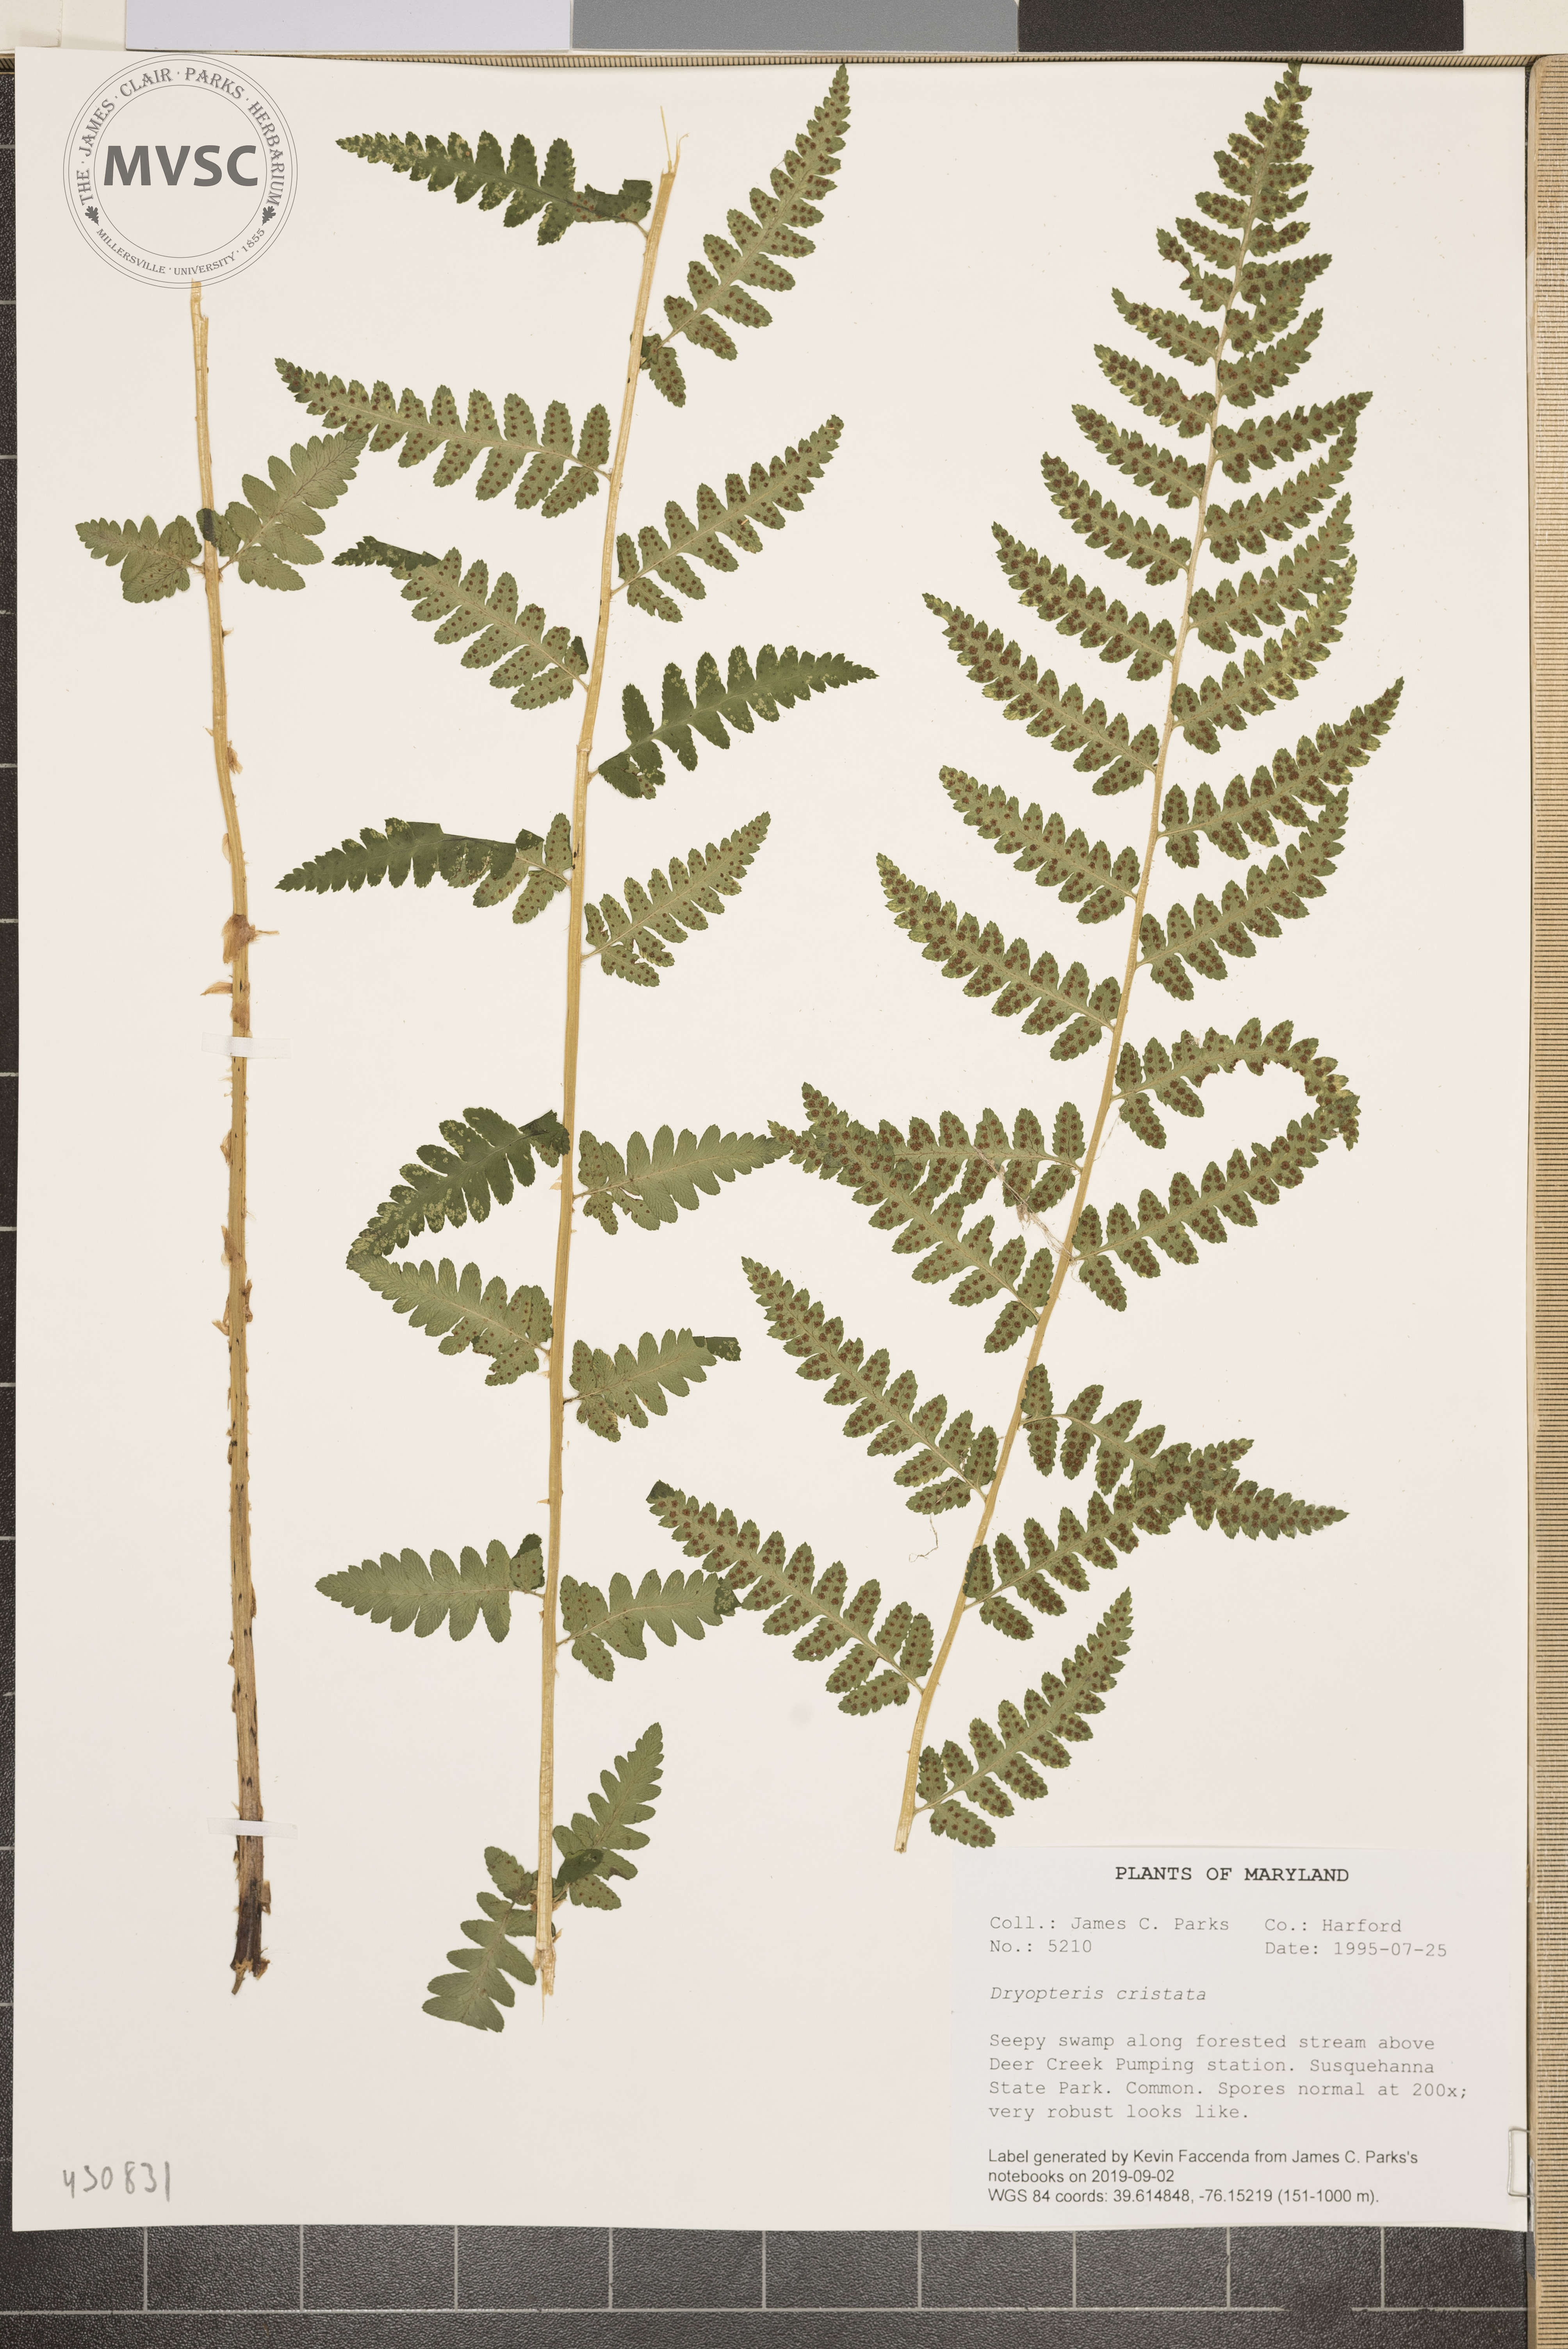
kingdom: Plantae
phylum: Tracheophyta
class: Polypodiopsida
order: Polypodiales
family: Dryopteridaceae
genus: Dryopteris
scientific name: Dryopteris cristata
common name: Crested wood fern
